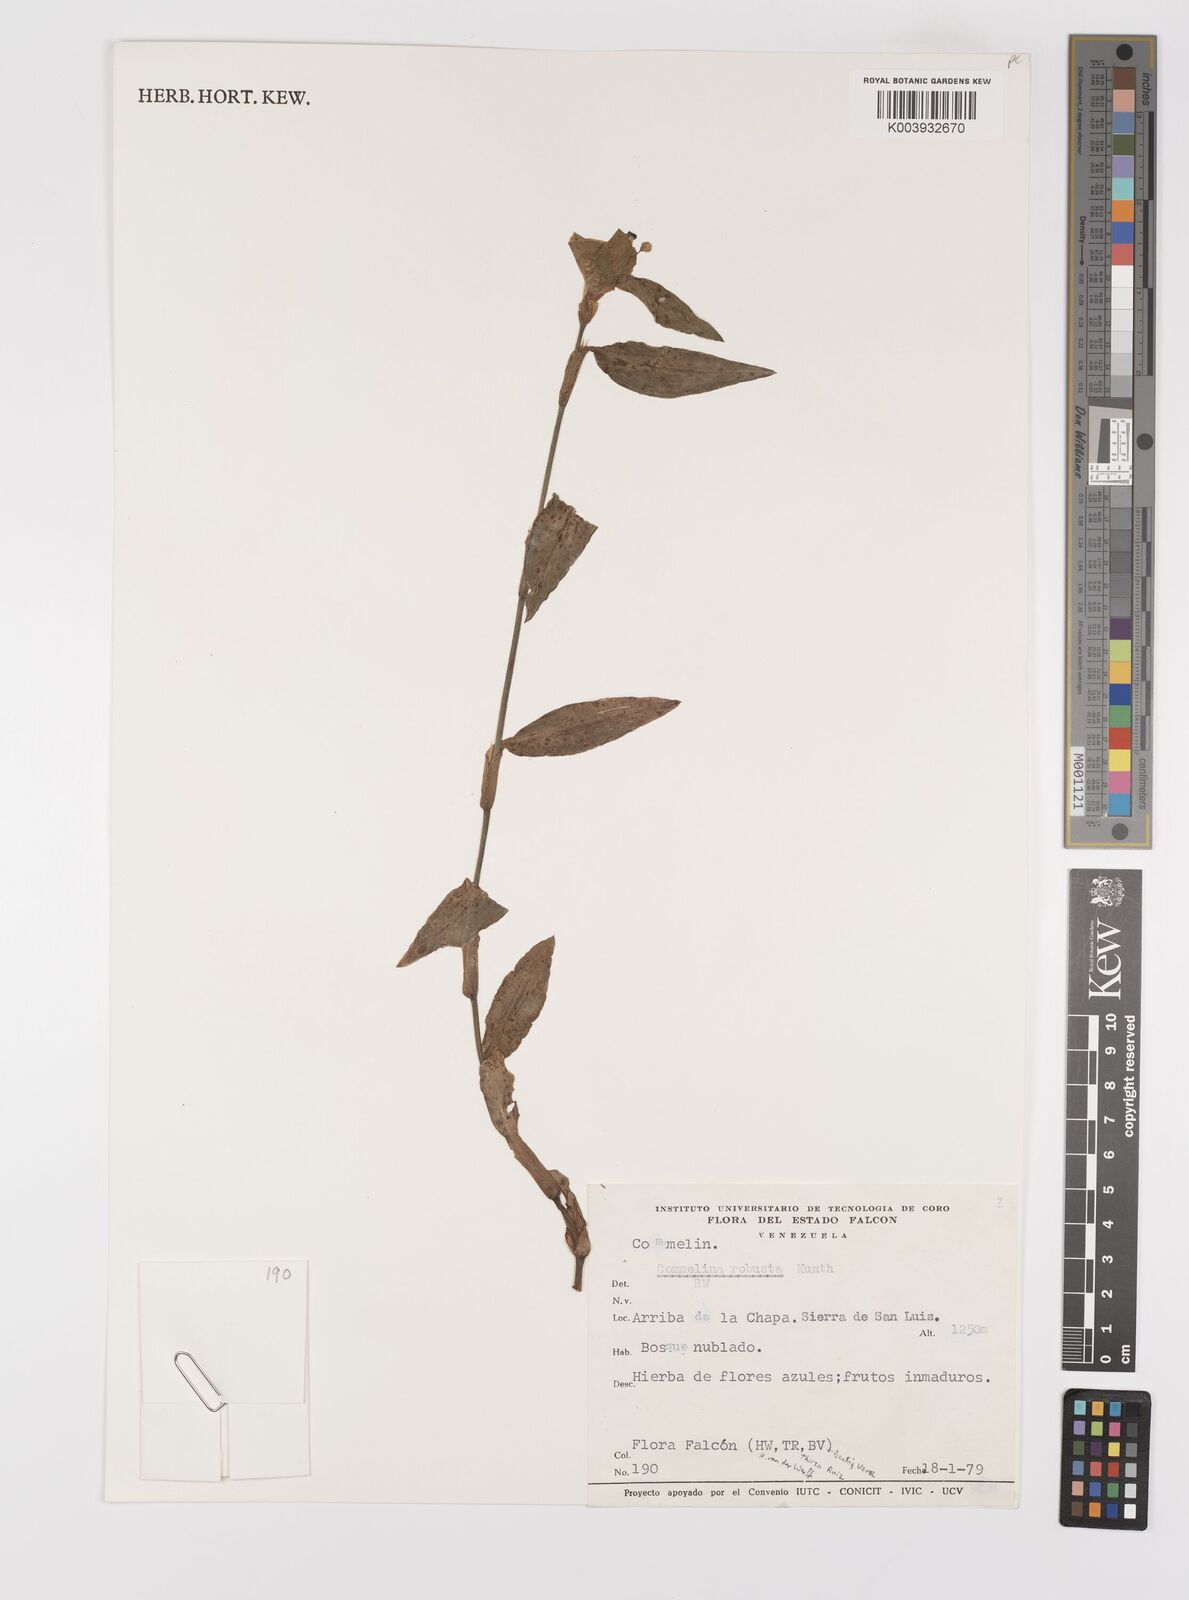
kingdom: Plantae
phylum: Tracheophyta
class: Liliopsida
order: Commelinales
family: Commelinaceae
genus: Commelina
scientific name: Commelina obliqua
